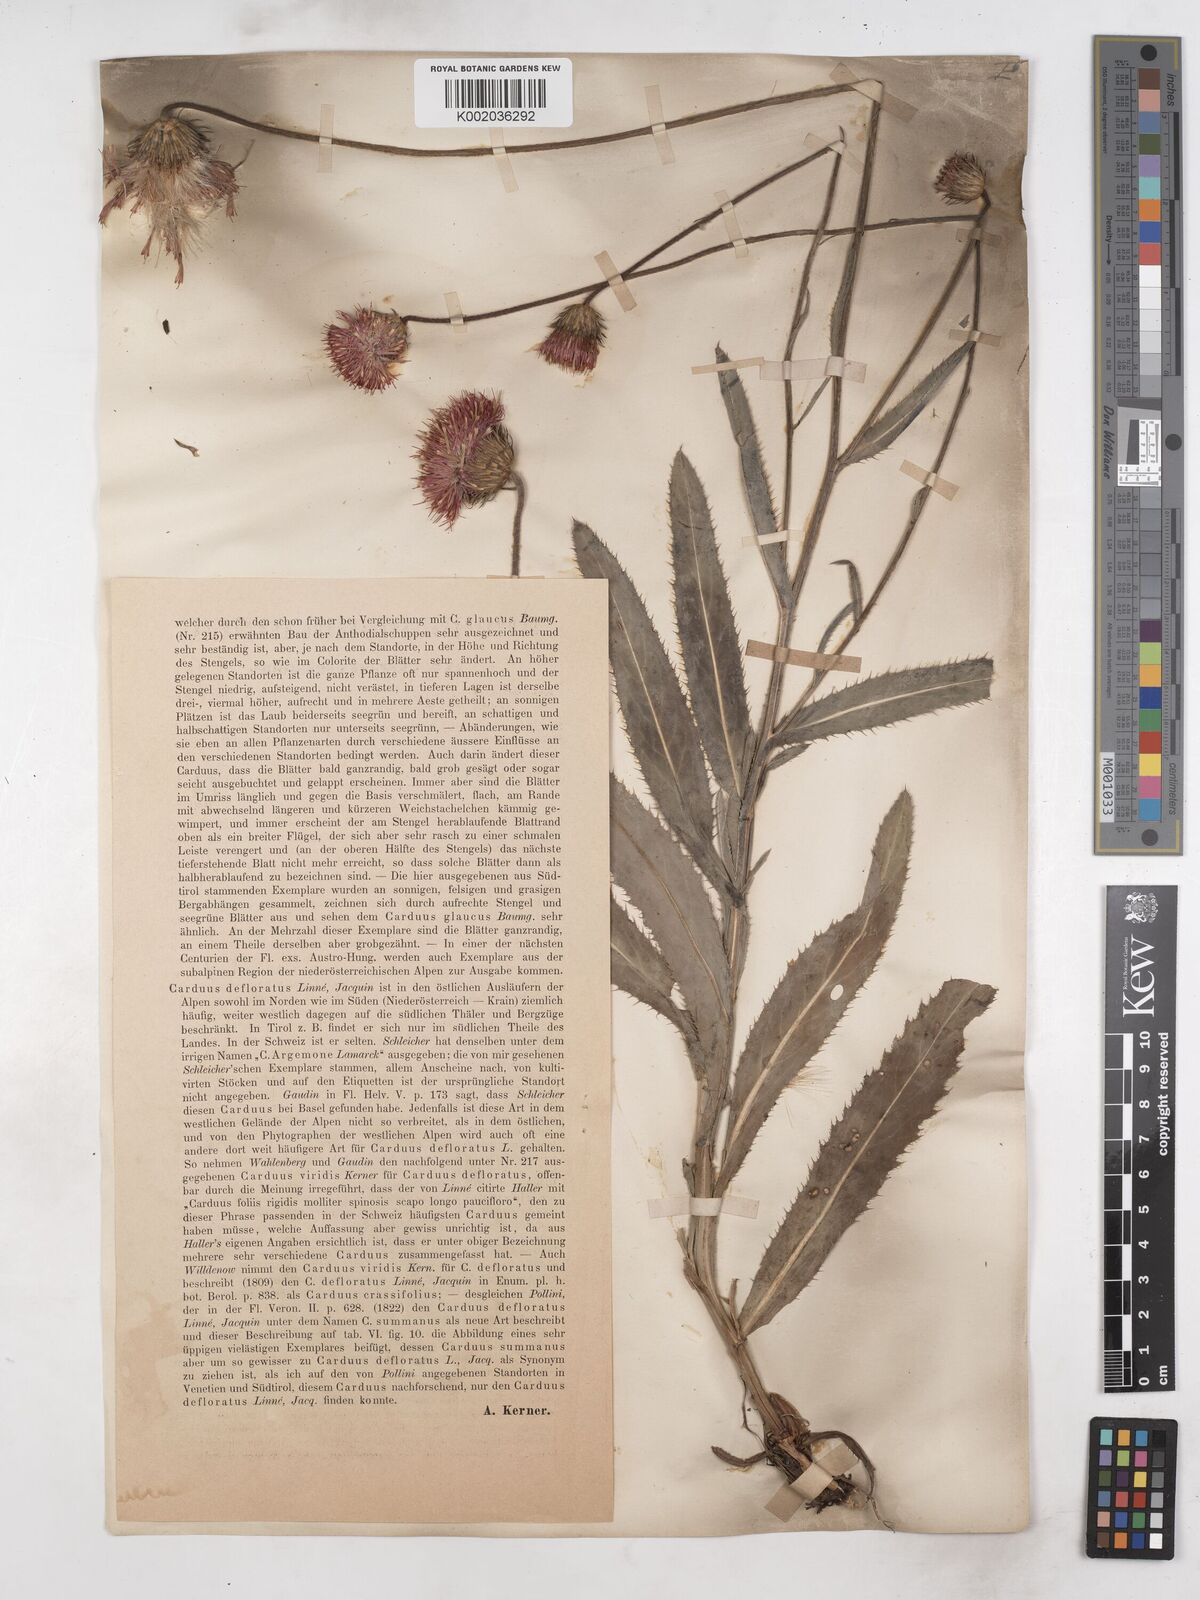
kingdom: Plantae
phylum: Tracheophyta
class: Magnoliopsida
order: Asterales
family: Asteraceae
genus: Carduus
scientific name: Carduus defloratus
